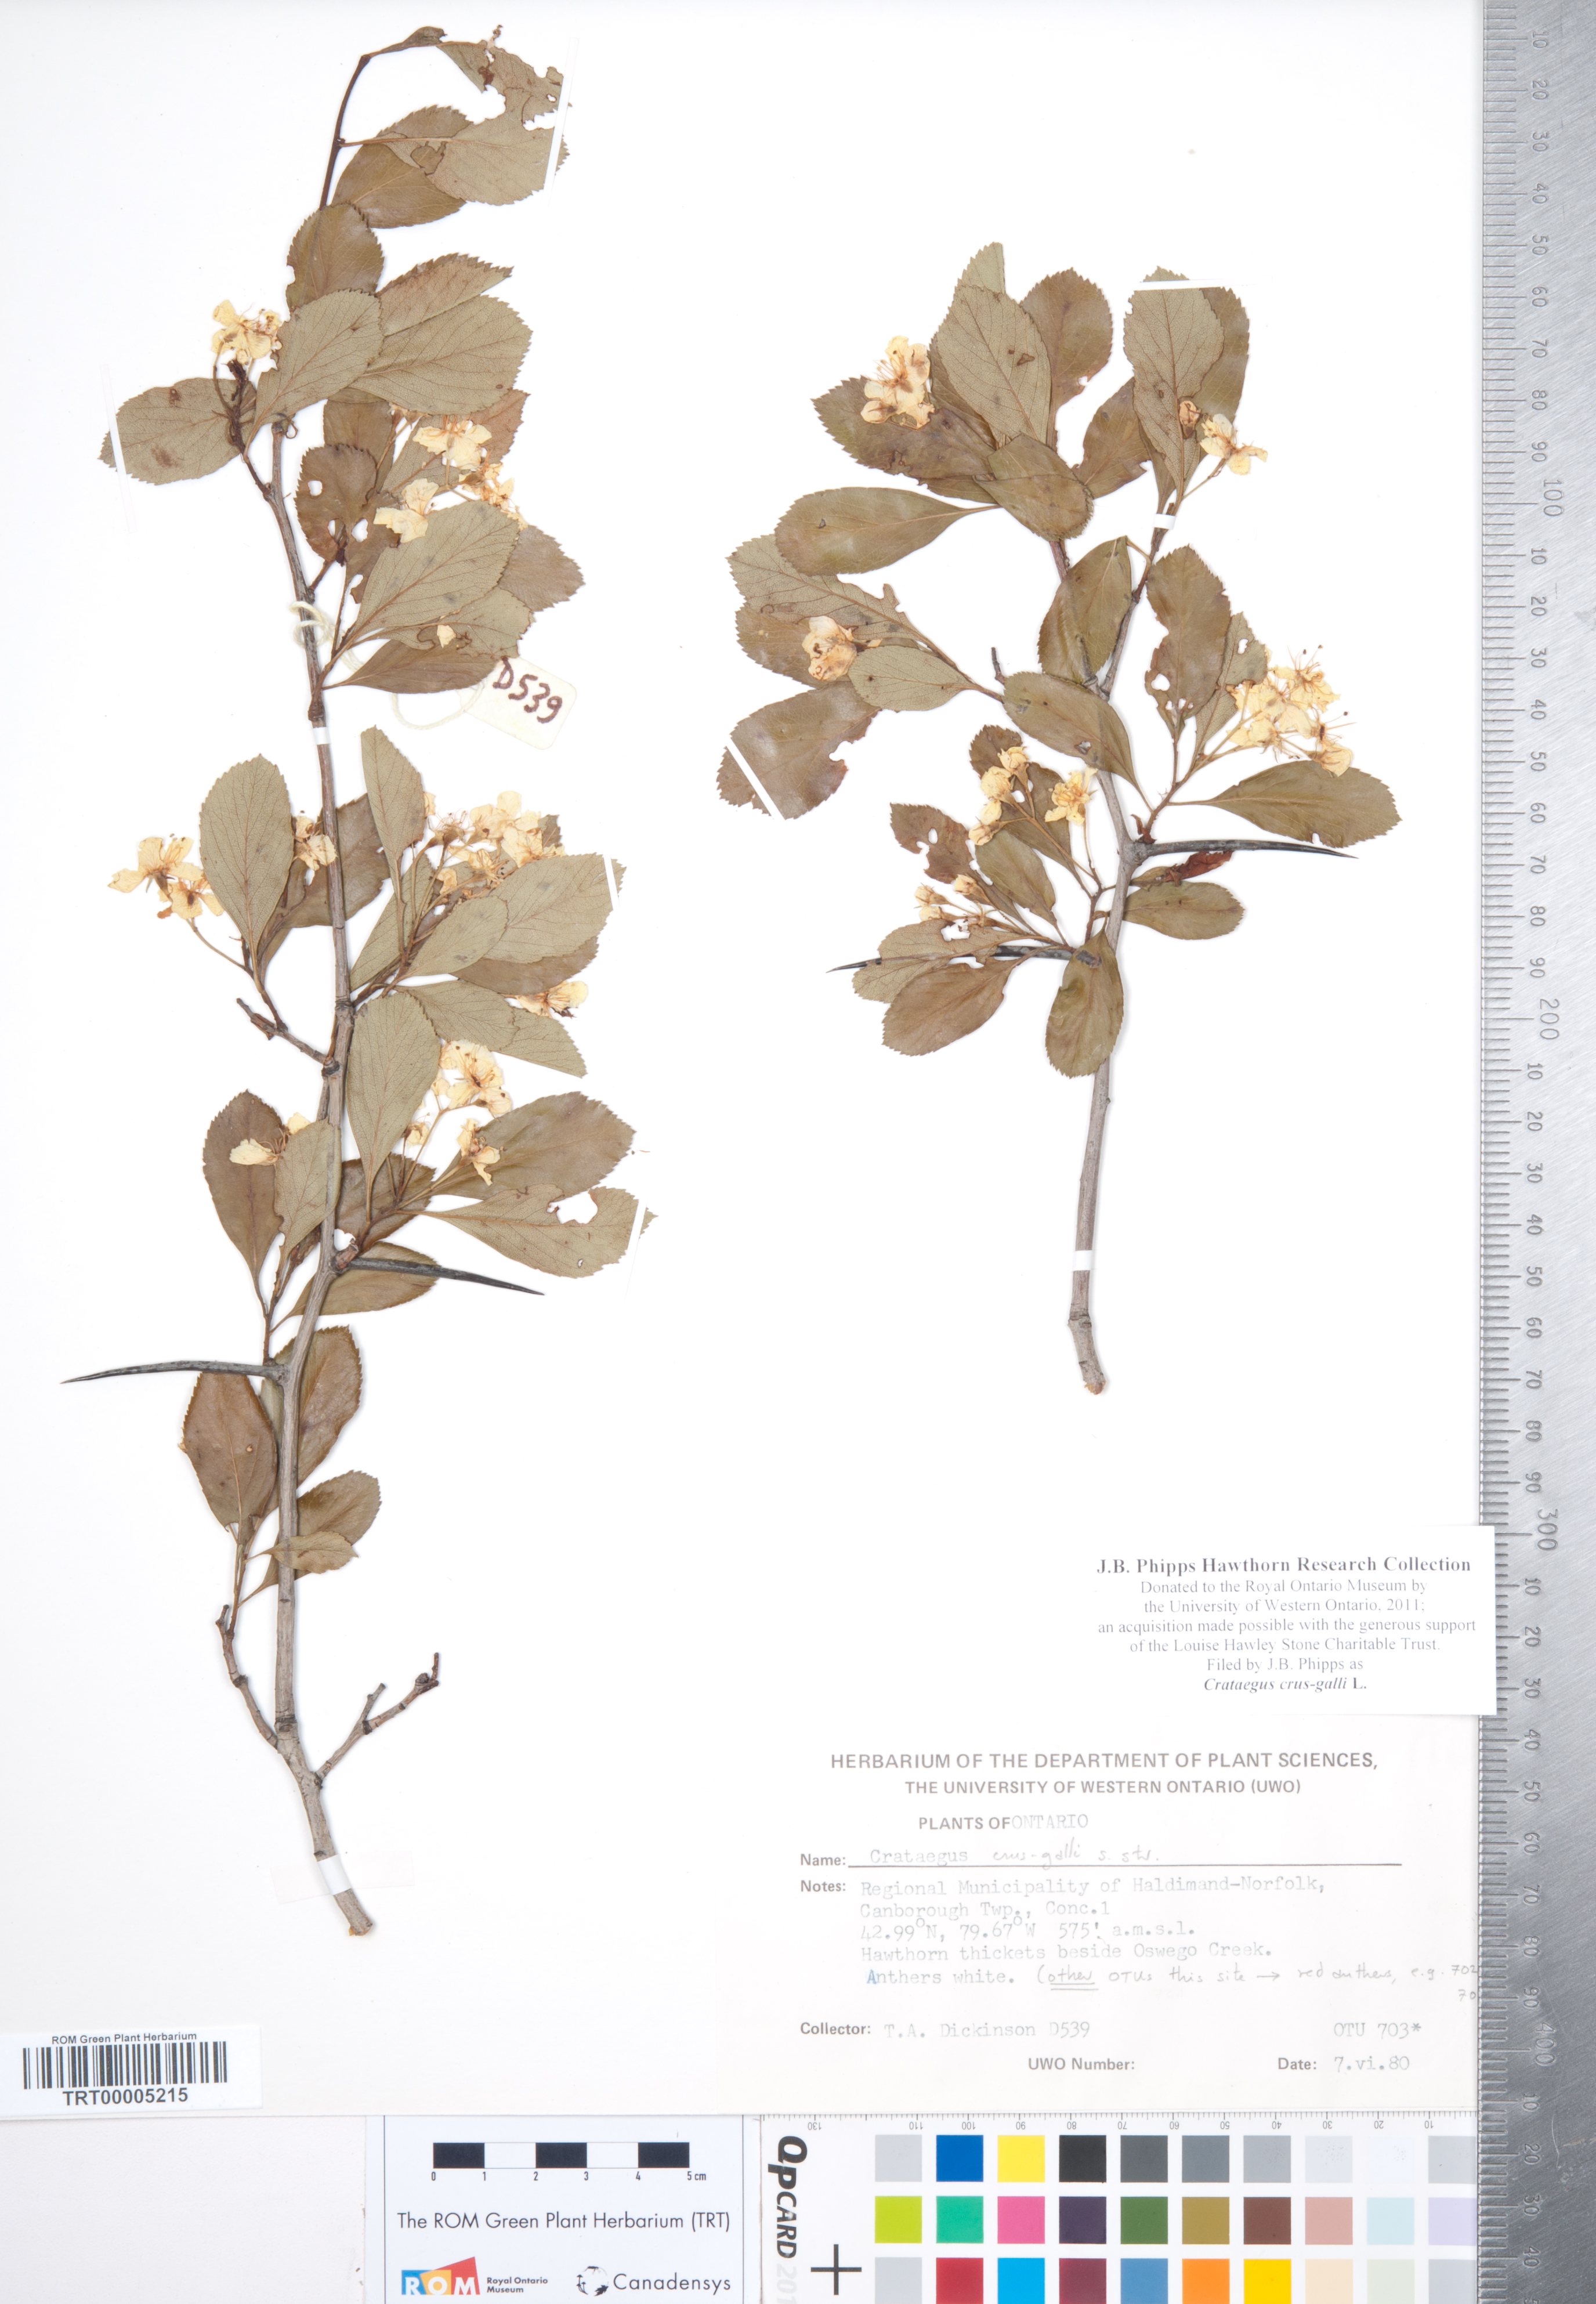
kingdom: Plantae
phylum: Tracheophyta
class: Magnoliopsida
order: Rosales
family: Rosaceae
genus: Crataegus
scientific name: Crataegus crus-galli
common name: Cockspurthorn
